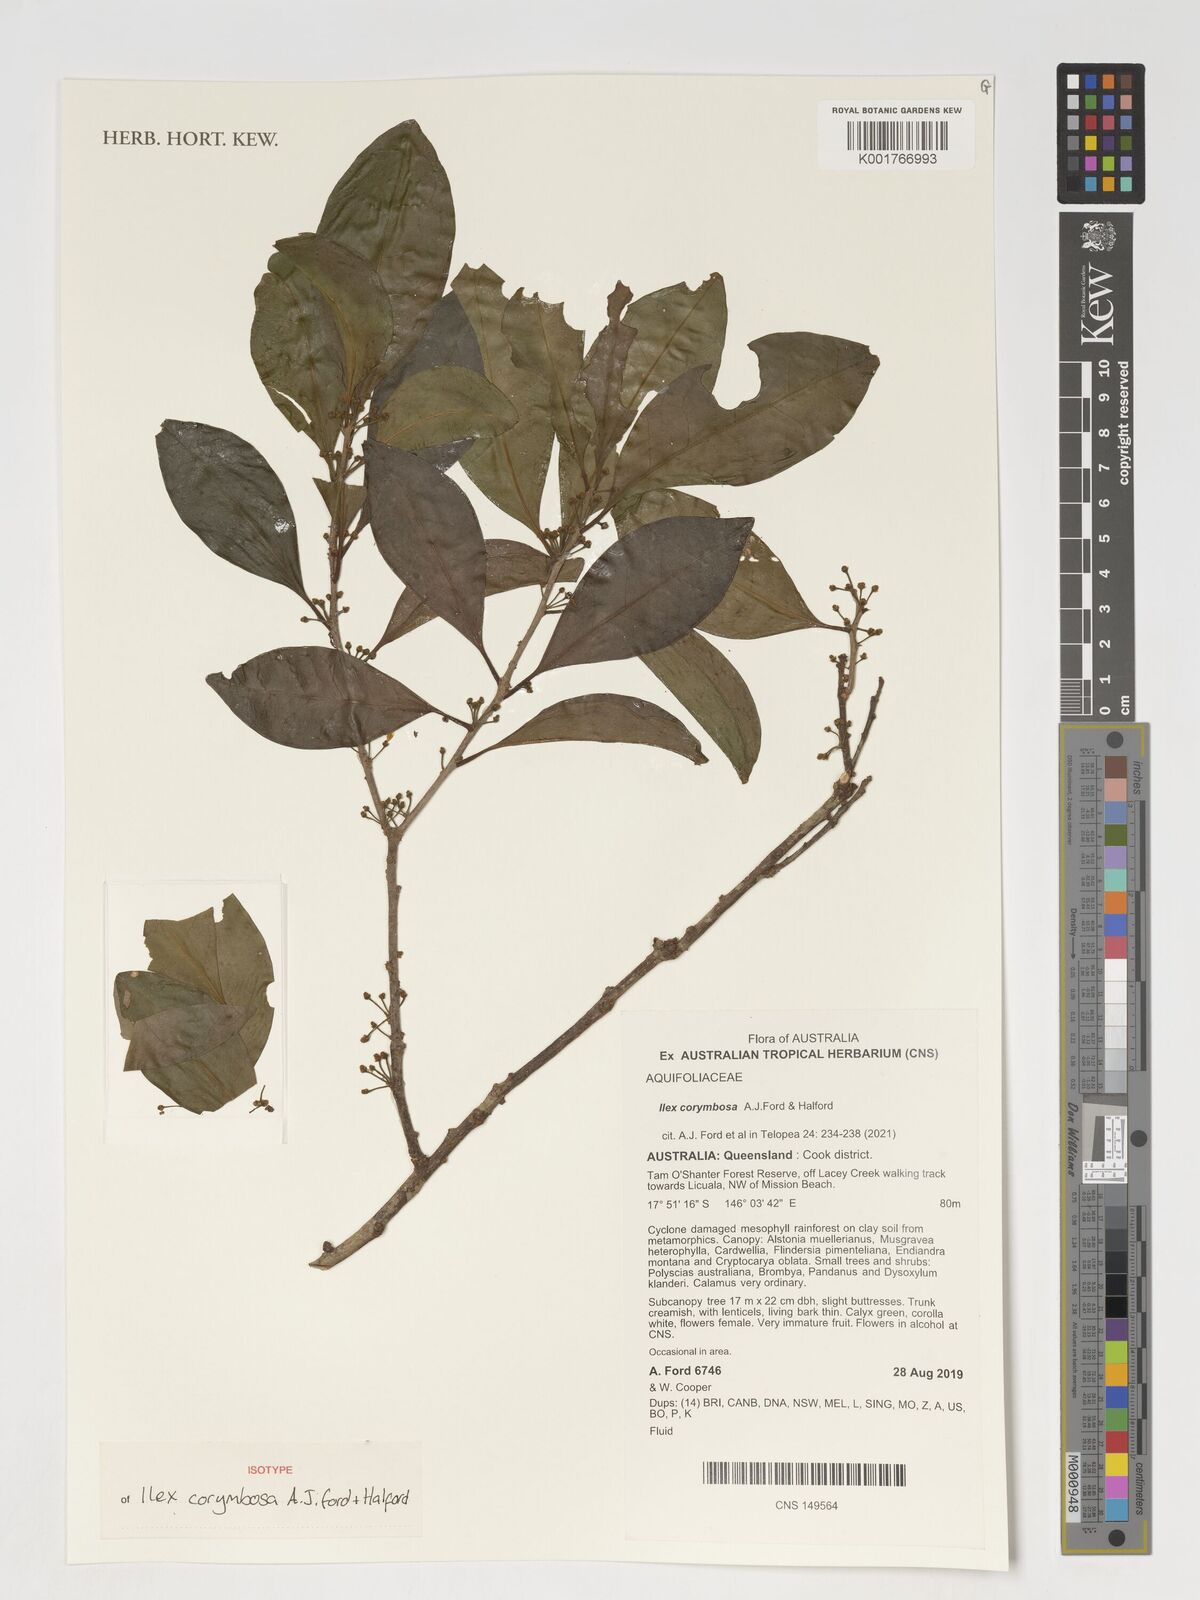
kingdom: Plantae
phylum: Tracheophyta
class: Magnoliopsida
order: Aquifoliales
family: Aquifoliaceae
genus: Ilex
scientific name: Ilex
